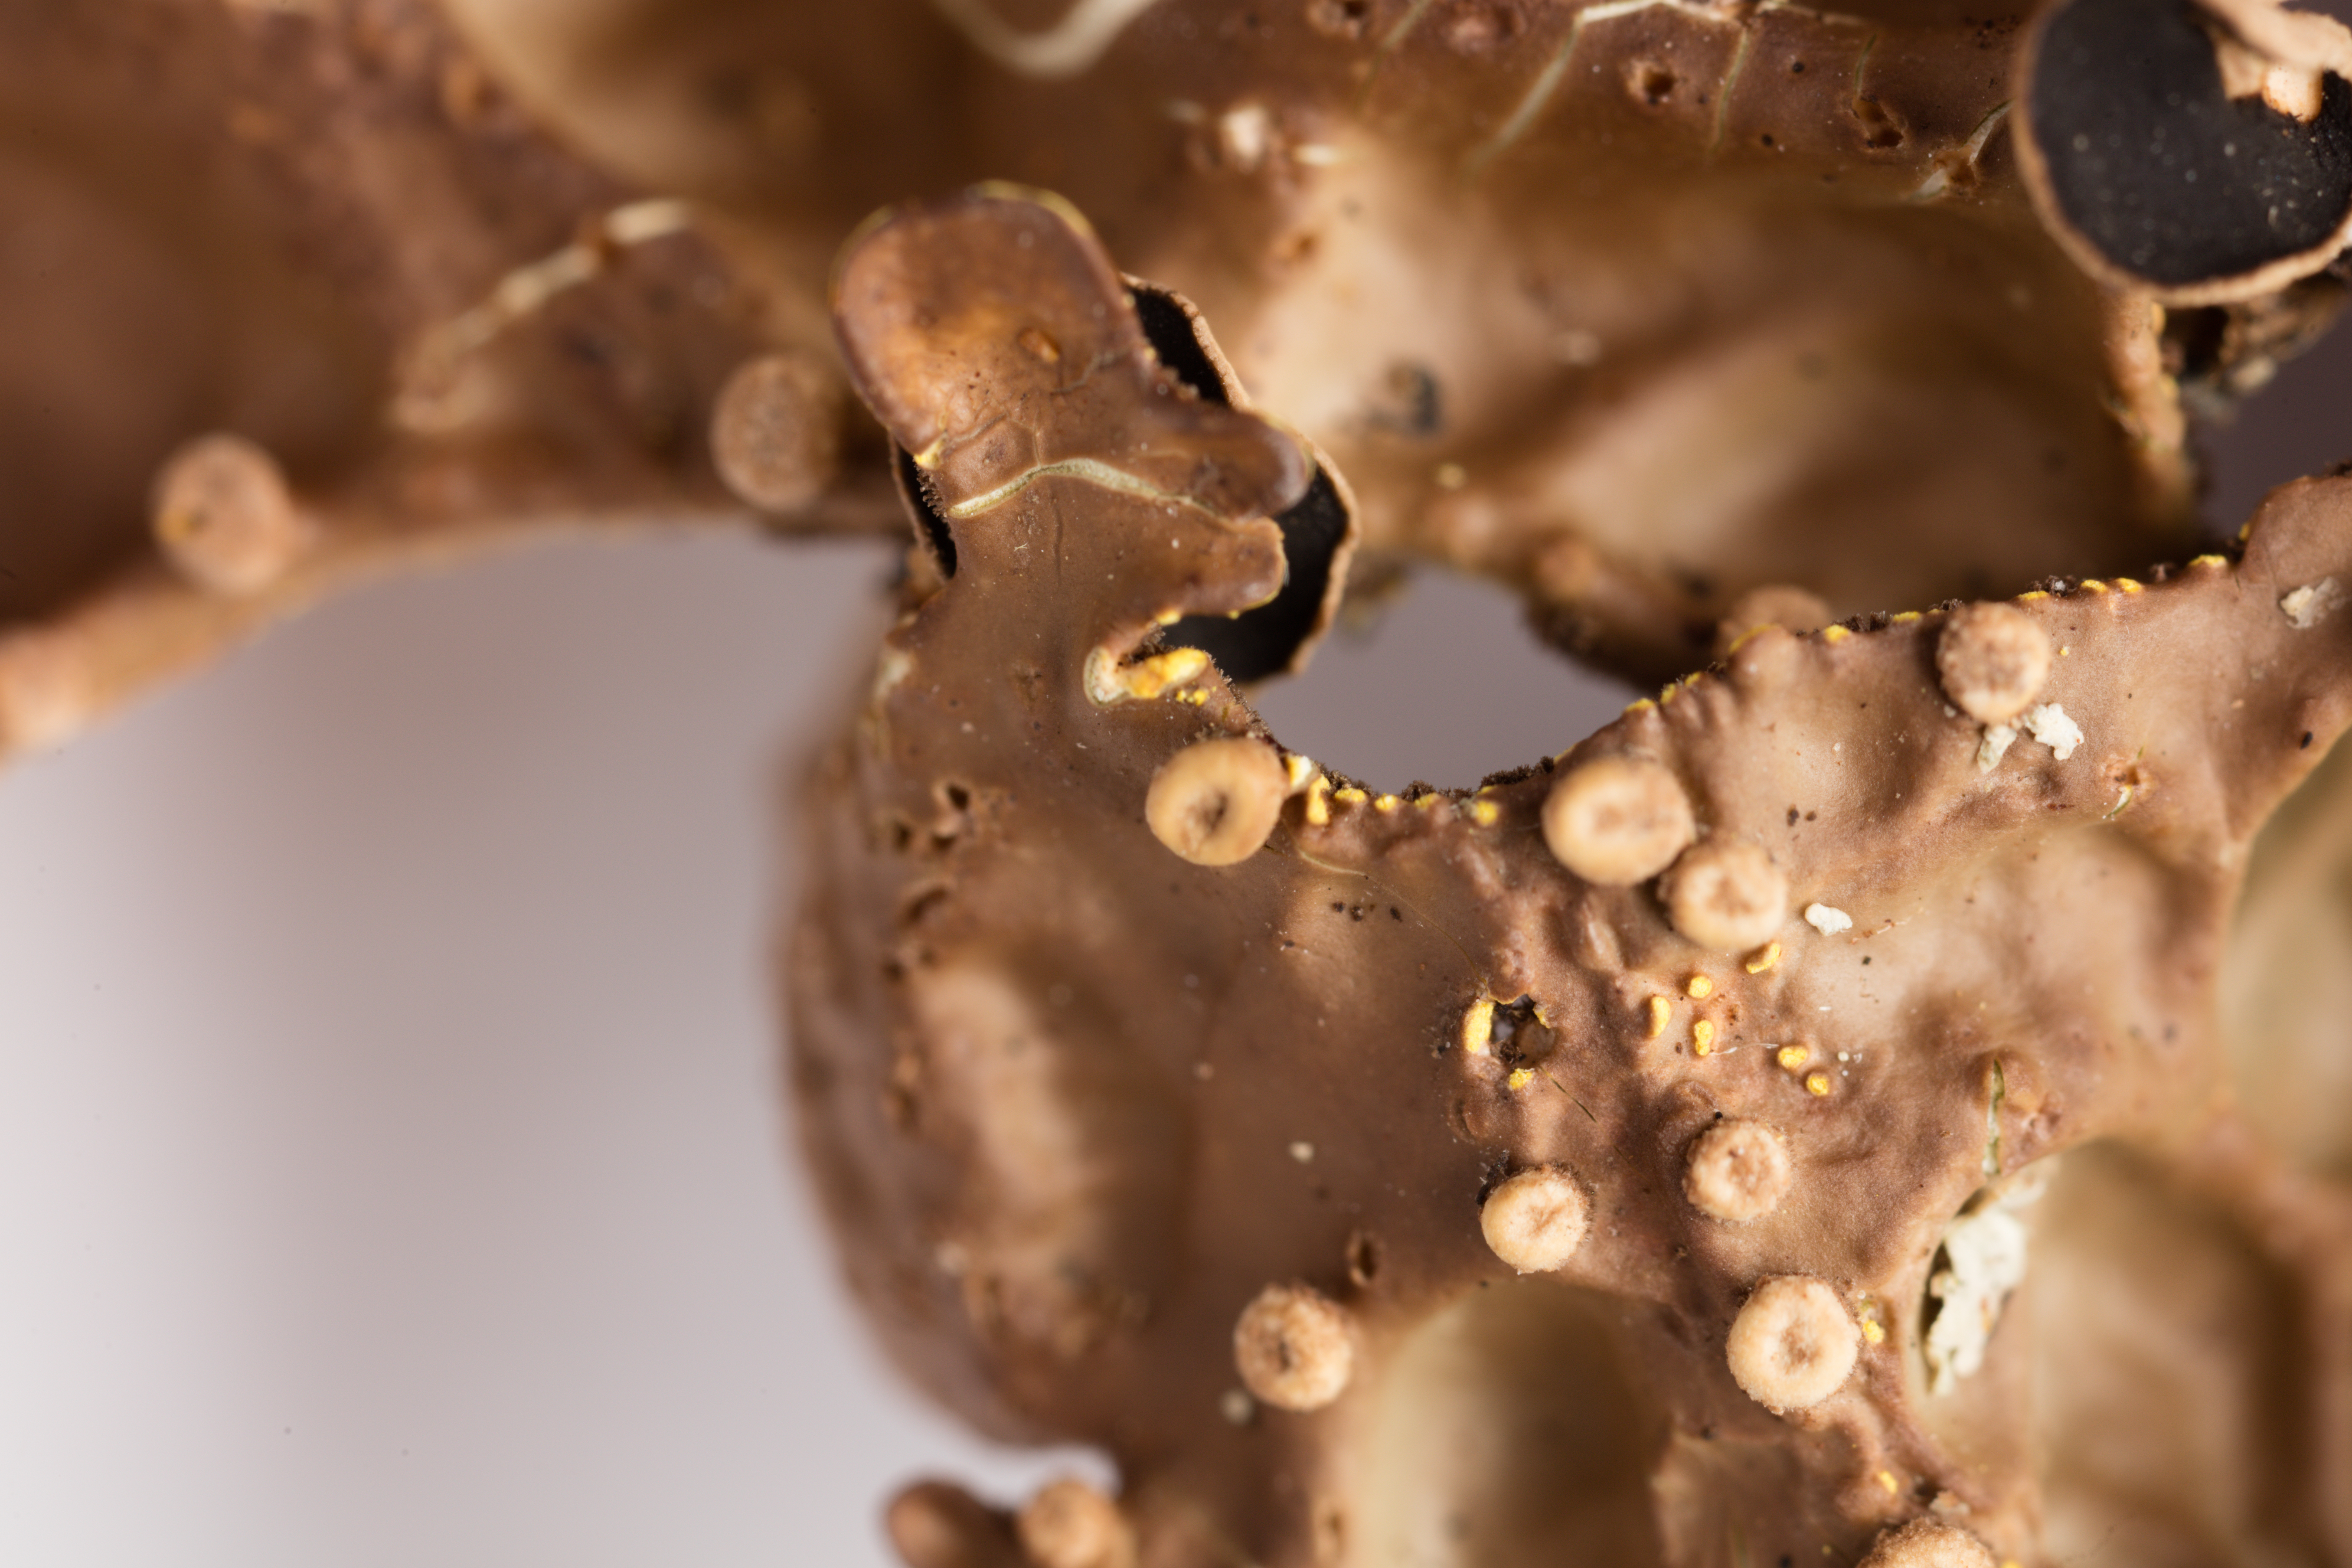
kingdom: Fungi
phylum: Ascomycota
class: Lecanoromycetes
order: Peltigerales
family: Lobariaceae
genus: Pseudocyphellaria
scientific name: Pseudocyphellaria carpoloma
